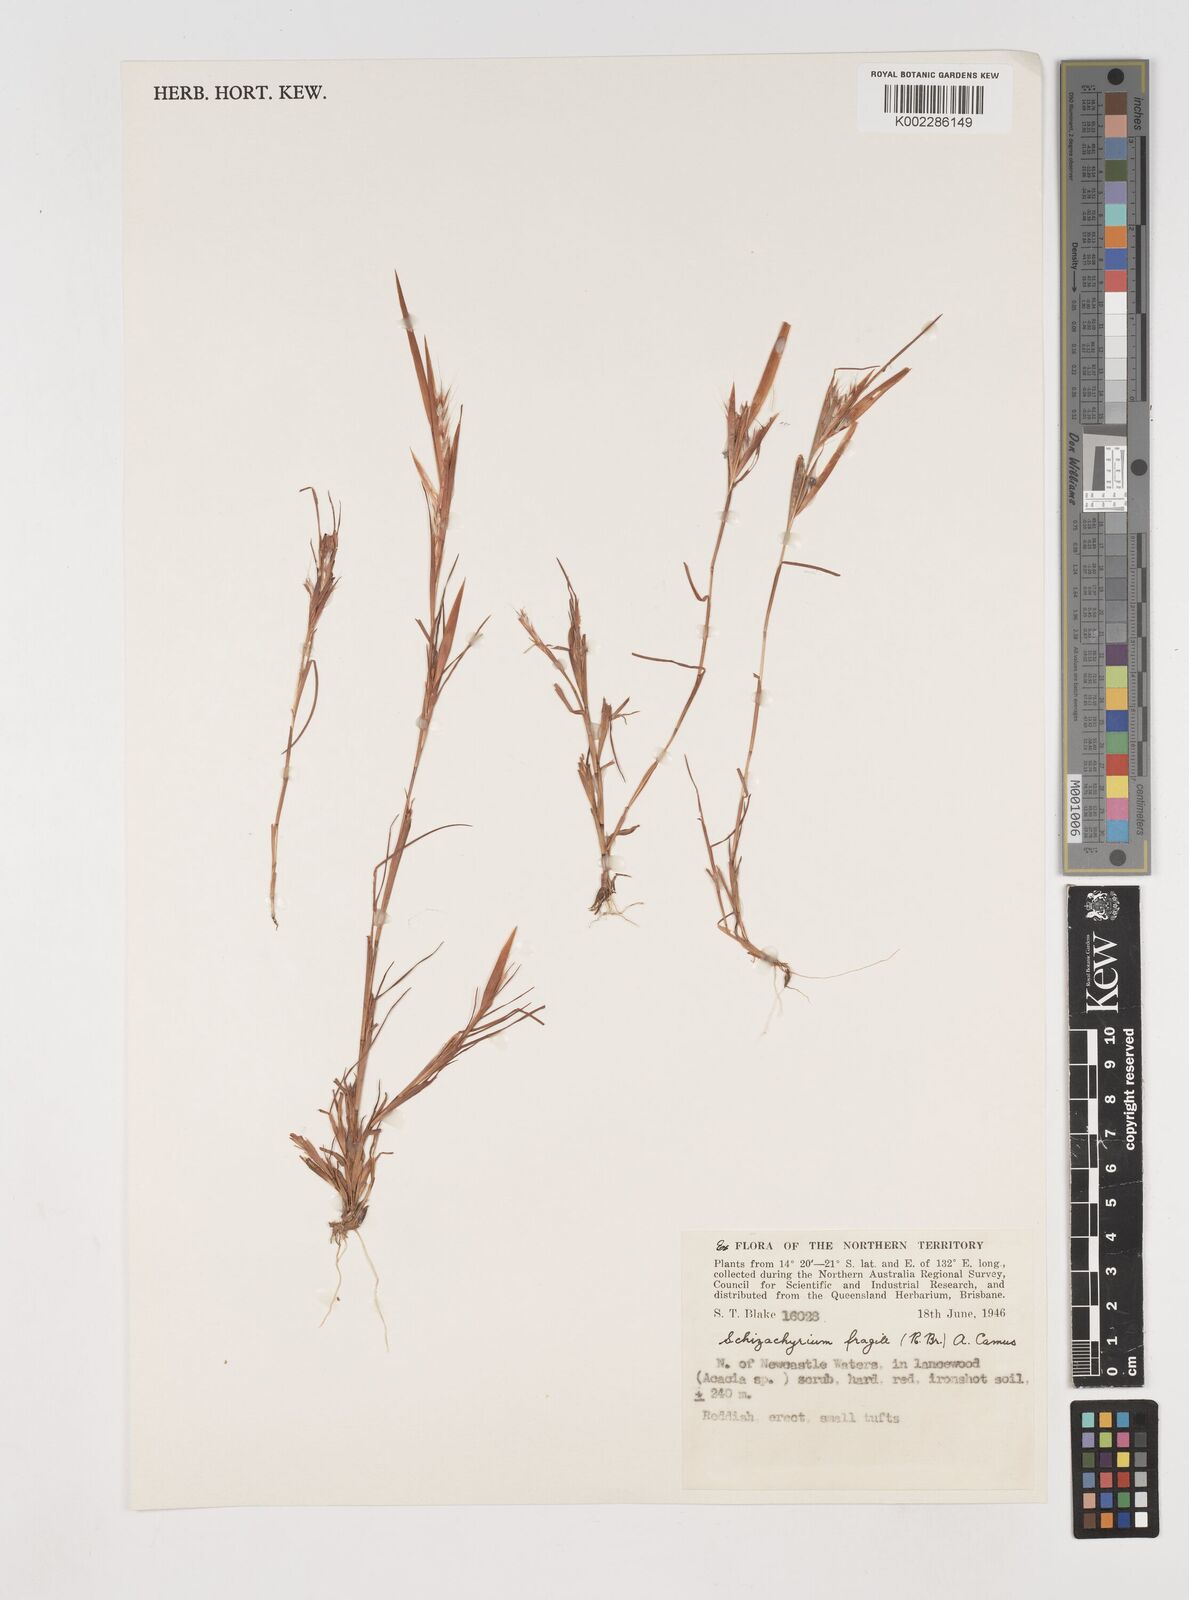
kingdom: Plantae
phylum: Tracheophyta
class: Liliopsida
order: Poales
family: Poaceae
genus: Schizachyrium
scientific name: Schizachyrium fragile
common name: Red spathe grass
